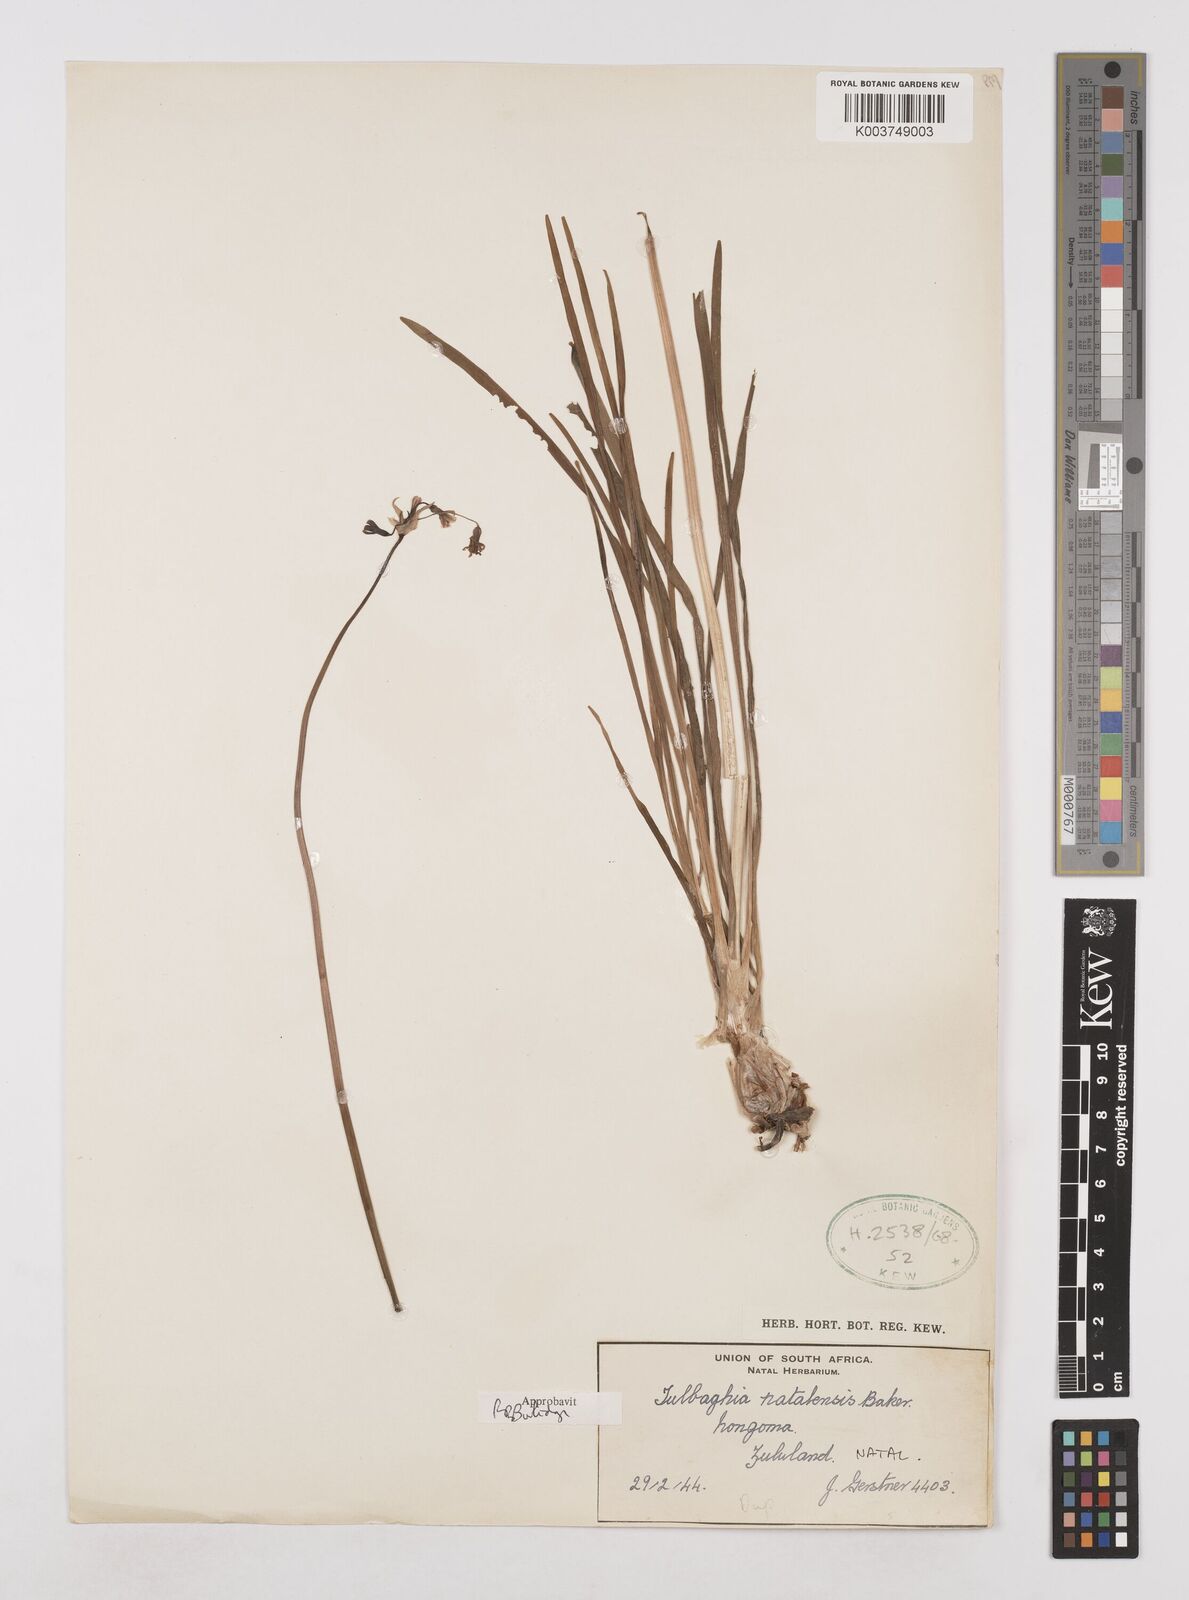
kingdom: Plantae
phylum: Tracheophyta
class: Liliopsida
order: Asparagales
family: Amaryllidaceae
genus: Tulbaghia
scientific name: Tulbaghia natalensis
